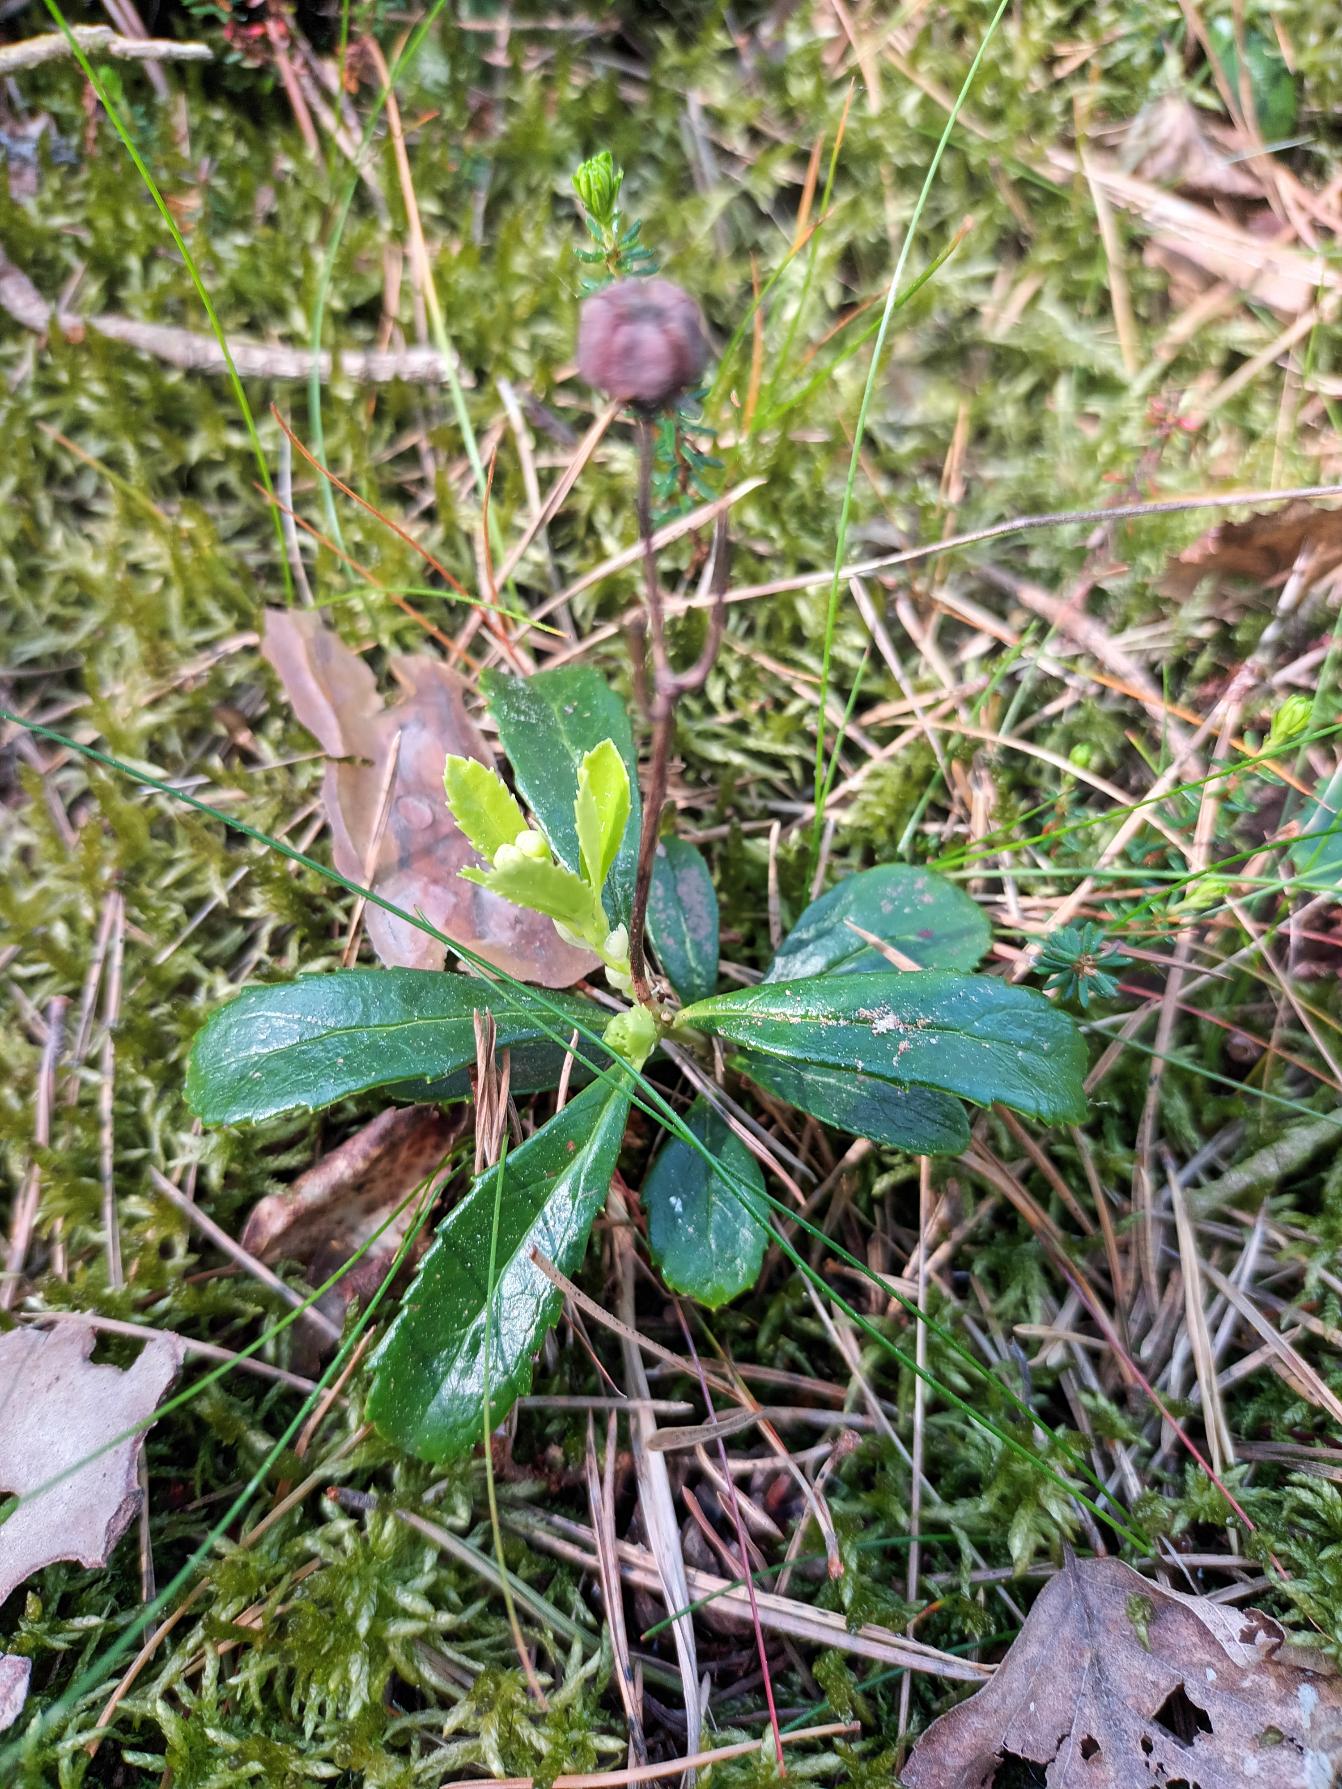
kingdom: Plantae
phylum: Tracheophyta
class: Magnoliopsida
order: Ericales
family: Ericaceae
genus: Chimaphila
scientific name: Chimaphila umbellata
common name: Skærm-vintergrøn
